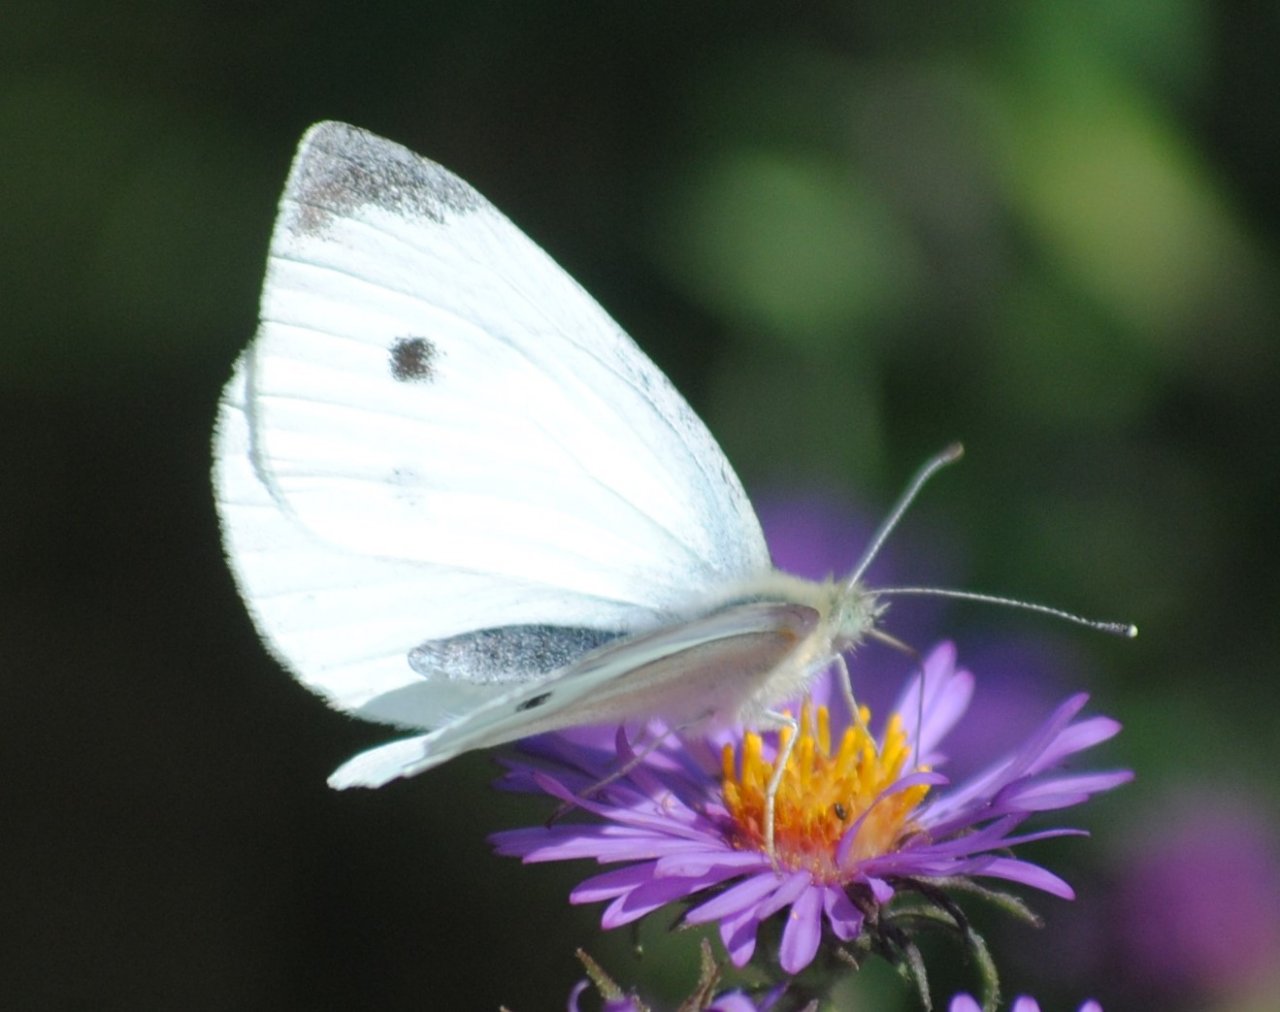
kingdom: Animalia
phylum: Arthropoda
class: Insecta
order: Lepidoptera
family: Pieridae
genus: Pieris
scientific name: Pieris rapae
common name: Cabbage White
